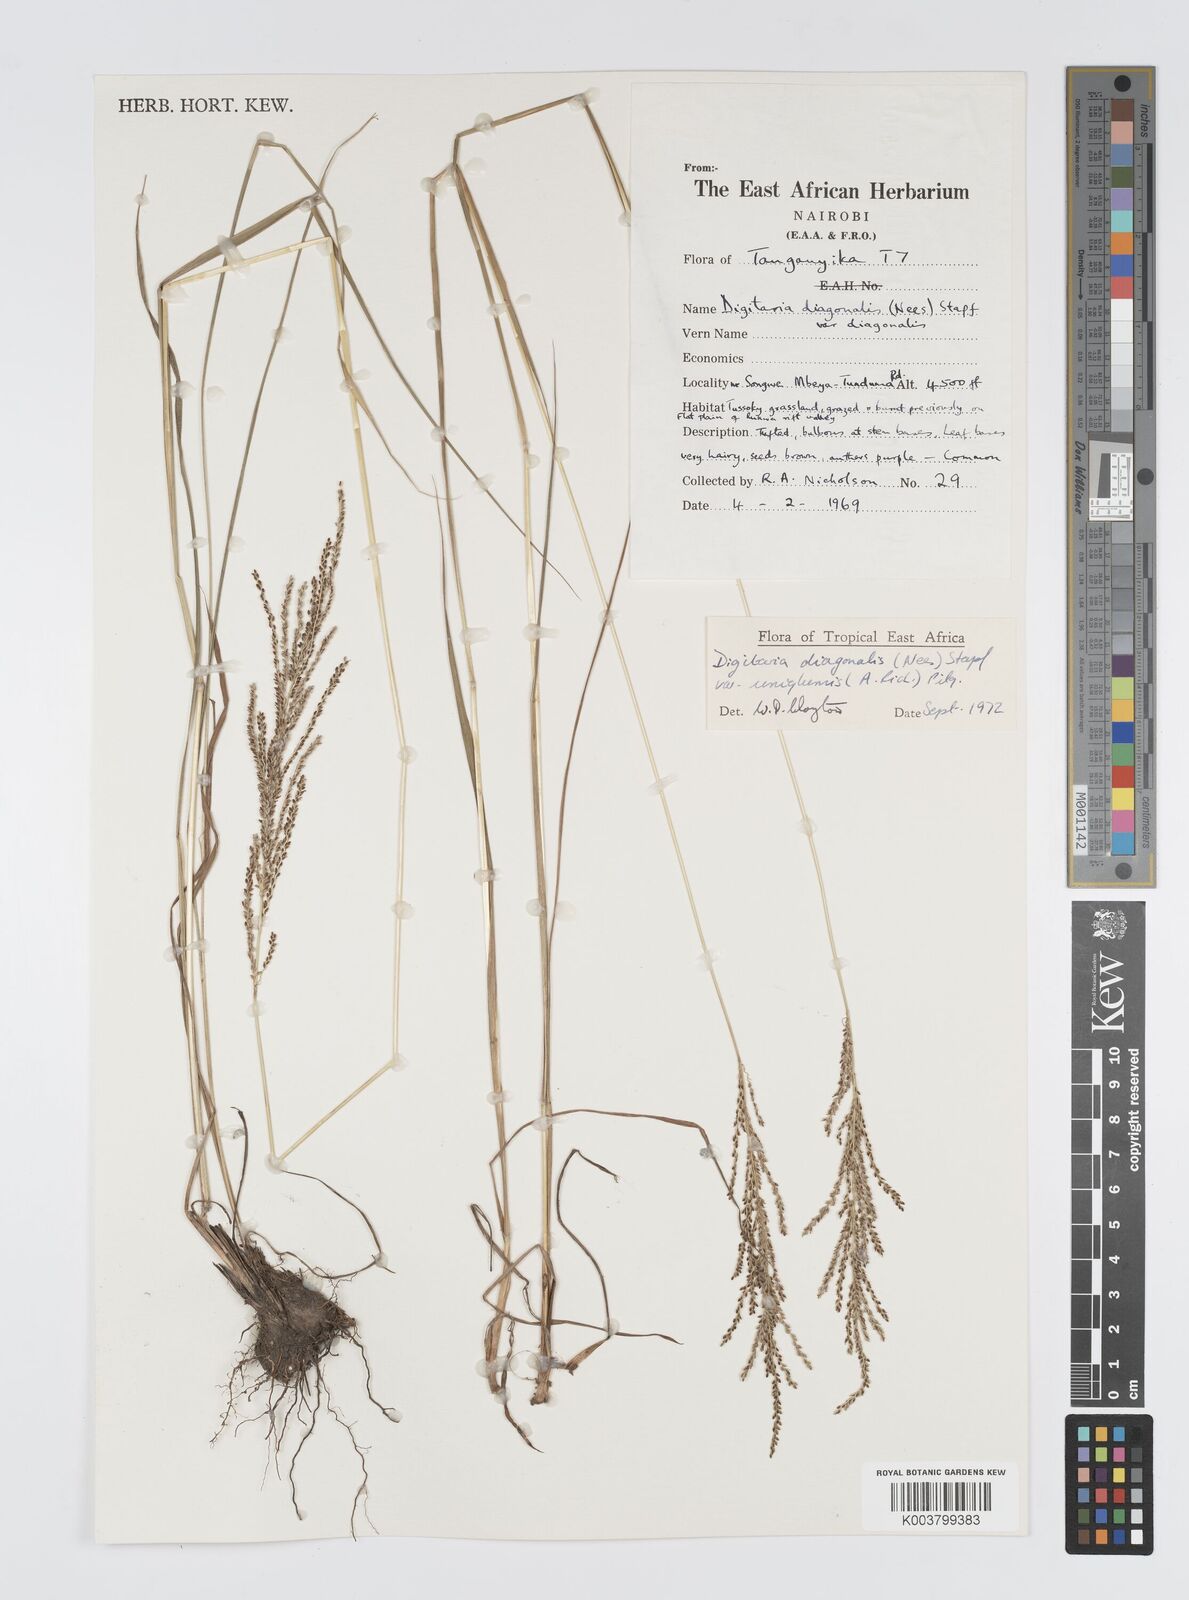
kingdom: Plantae
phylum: Tracheophyta
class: Liliopsida
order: Poales
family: Poaceae
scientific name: Poaceae
